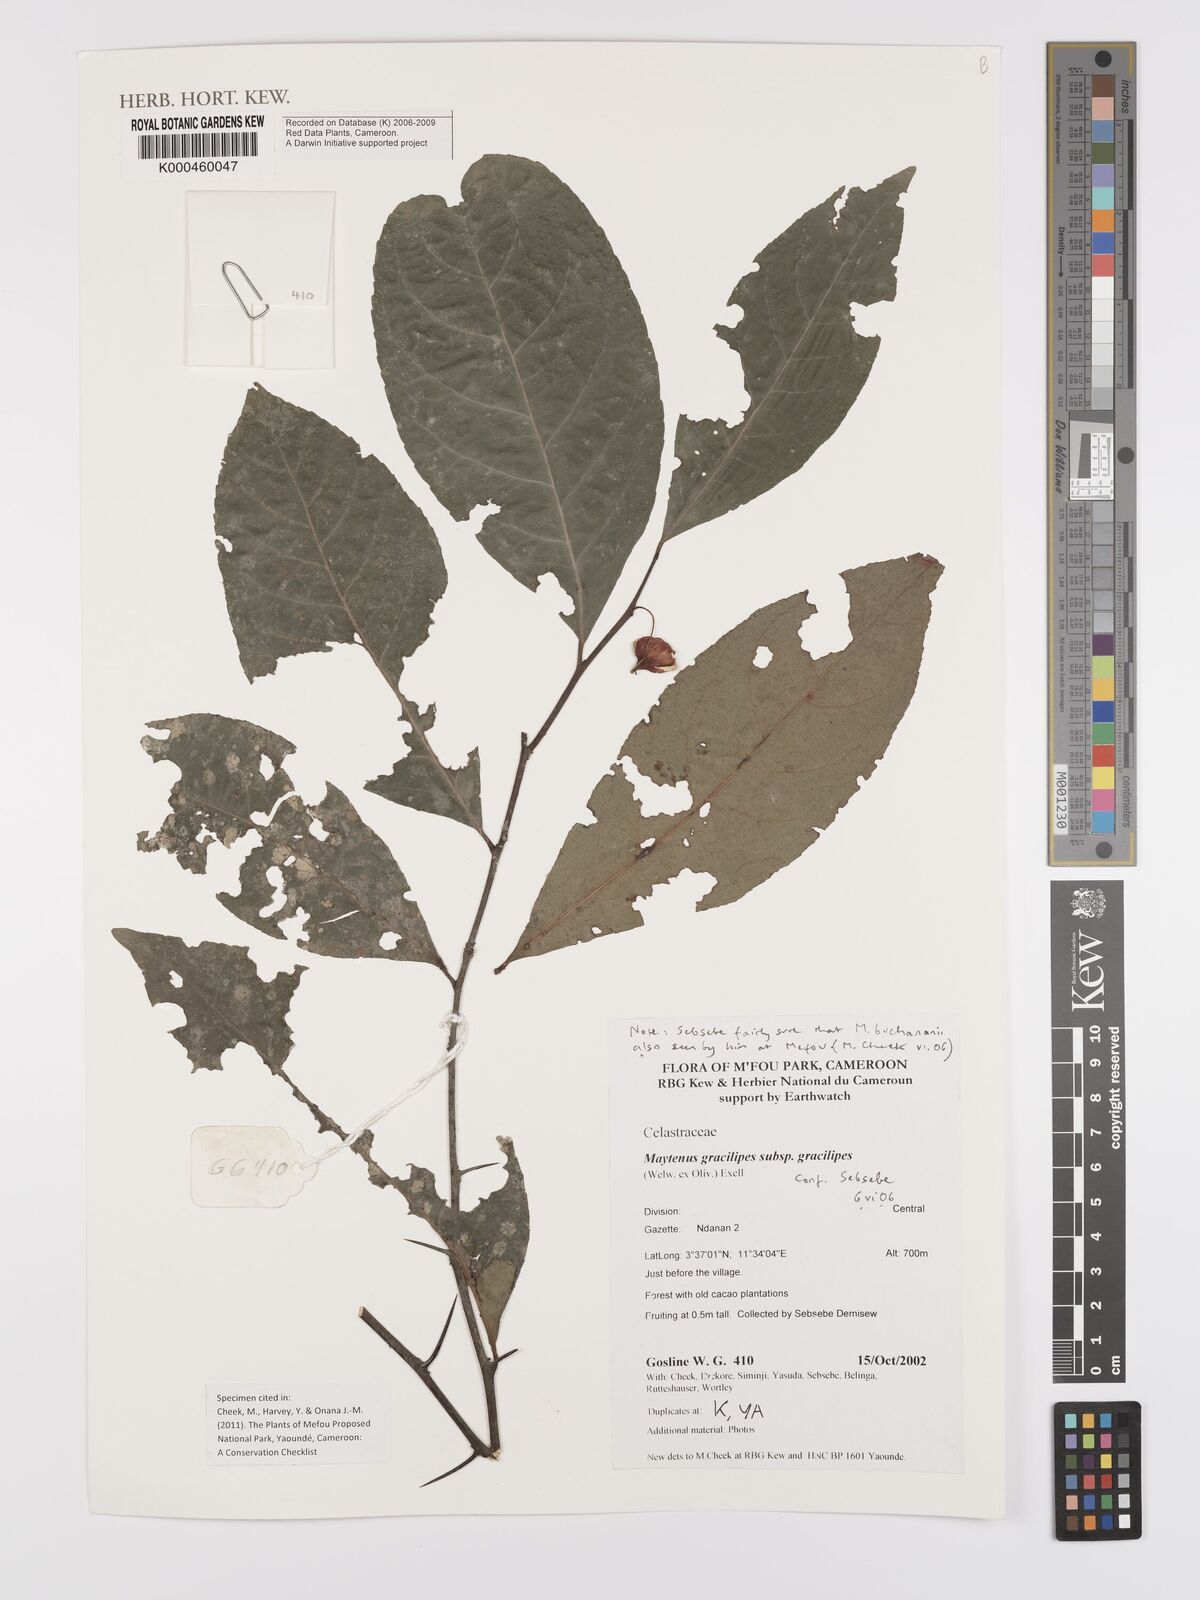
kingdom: Plantae
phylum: Tracheophyta
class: Magnoliopsida
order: Celastrales
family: Celastraceae
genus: Gymnosporia
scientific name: Gymnosporia gracilipes
